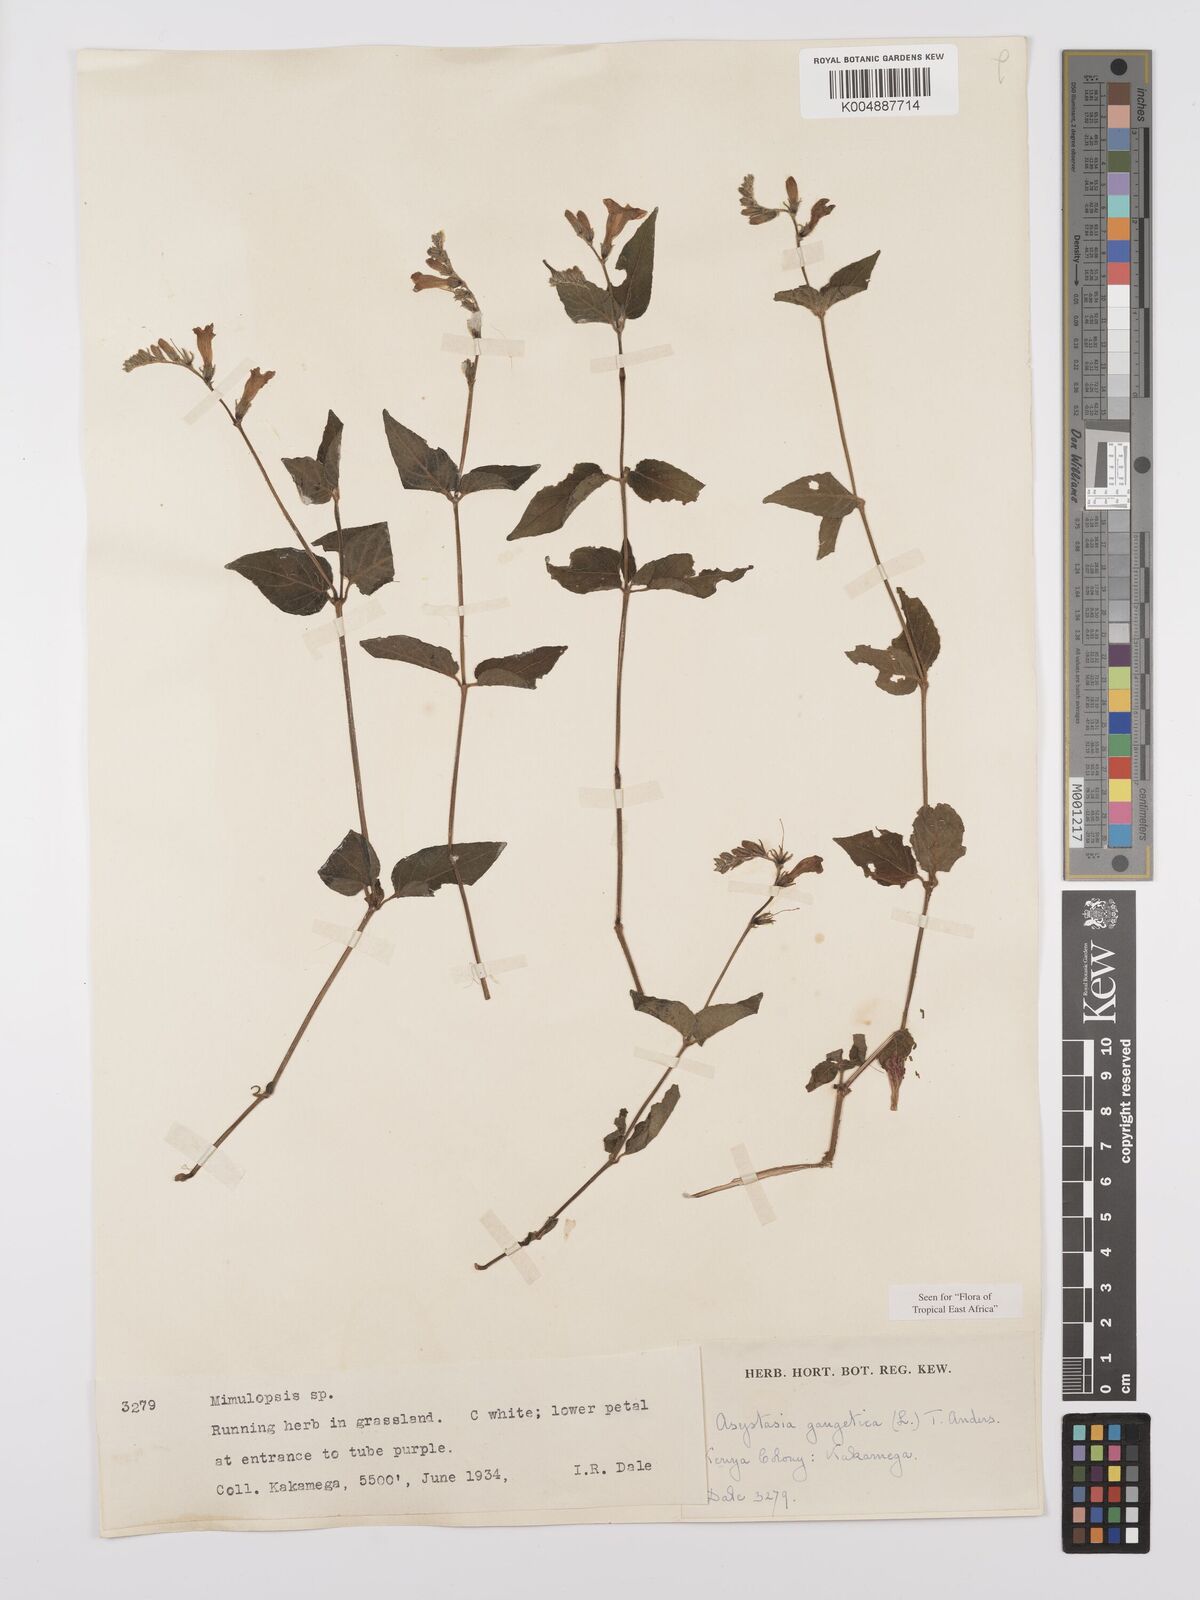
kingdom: Plantae
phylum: Tracheophyta
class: Magnoliopsida
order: Lamiales
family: Acanthaceae
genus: Asystasia
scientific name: Asystasia gangetica
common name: Chinese violet
